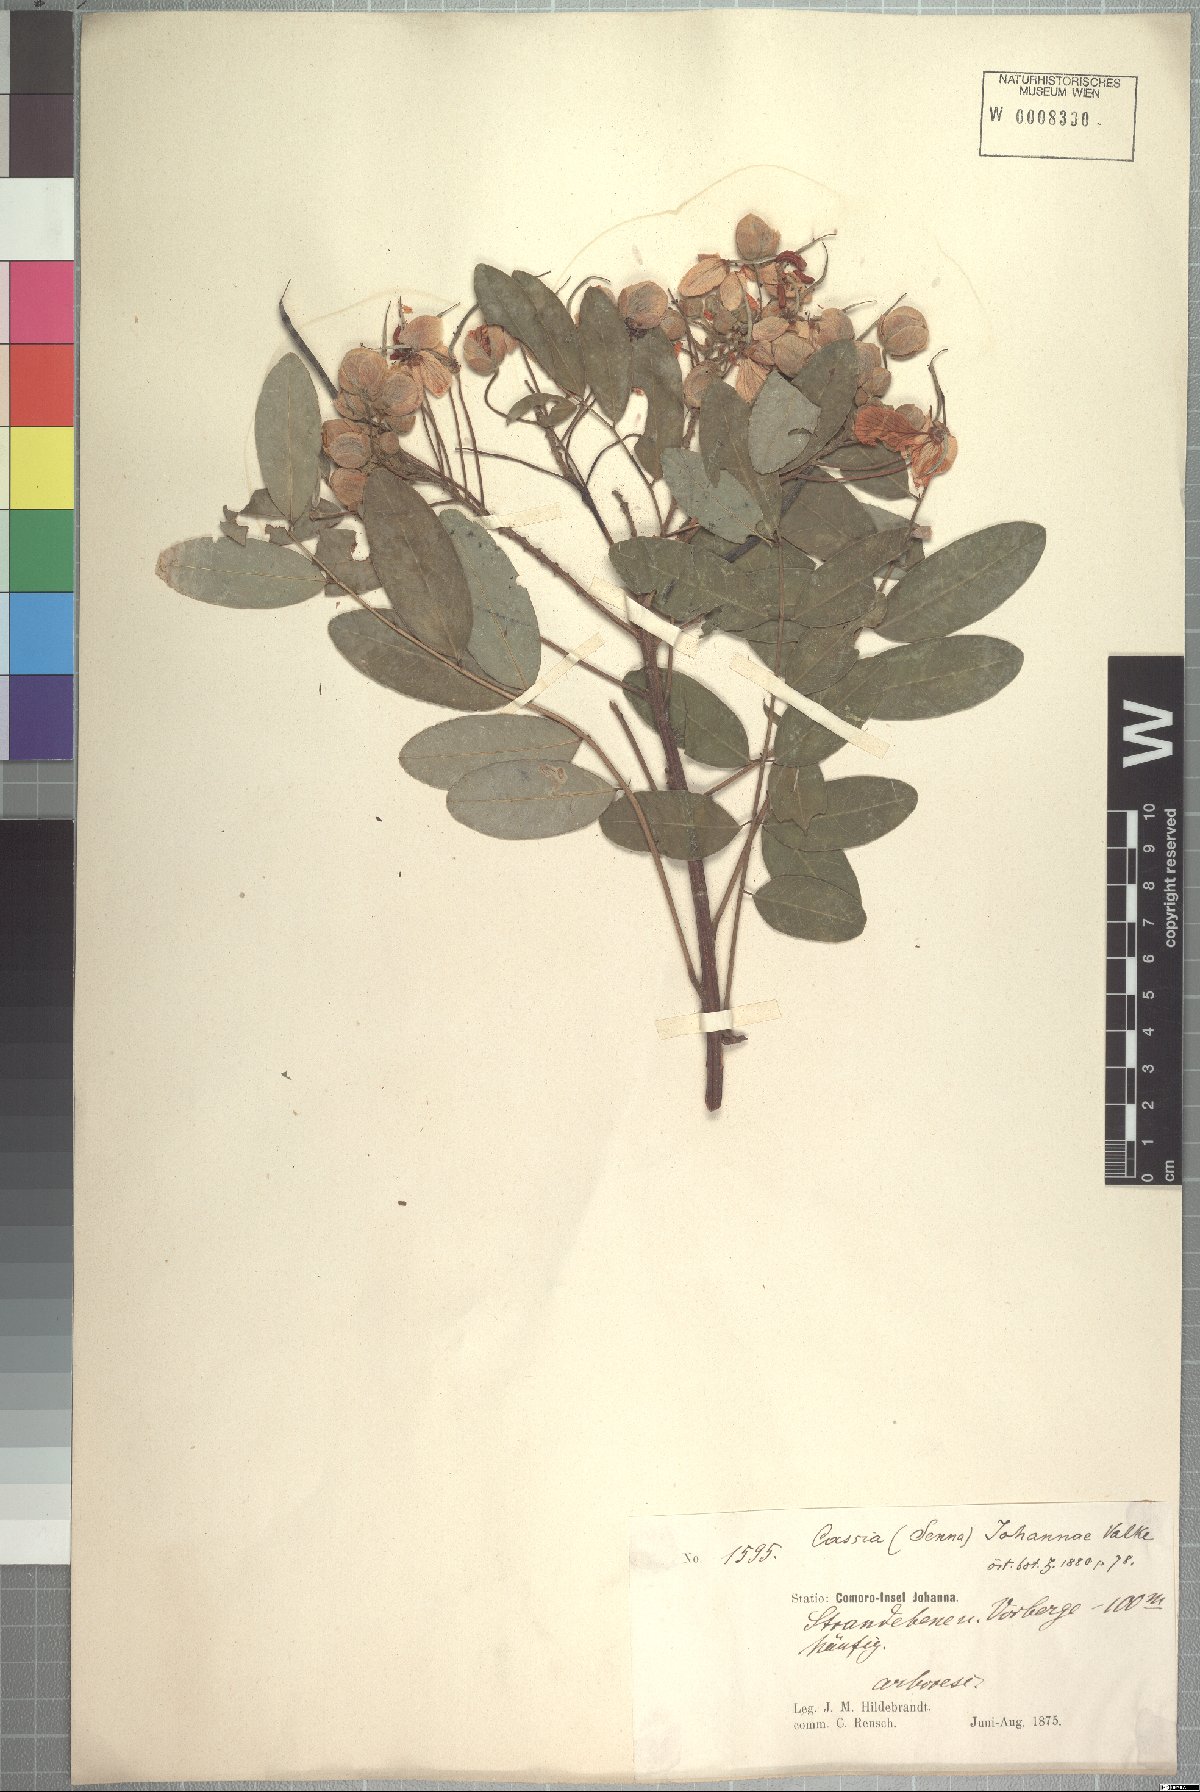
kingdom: Plantae
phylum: Tracheophyta
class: Magnoliopsida
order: Fabales
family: Fabaceae
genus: Cassia
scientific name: Cassia johannae
